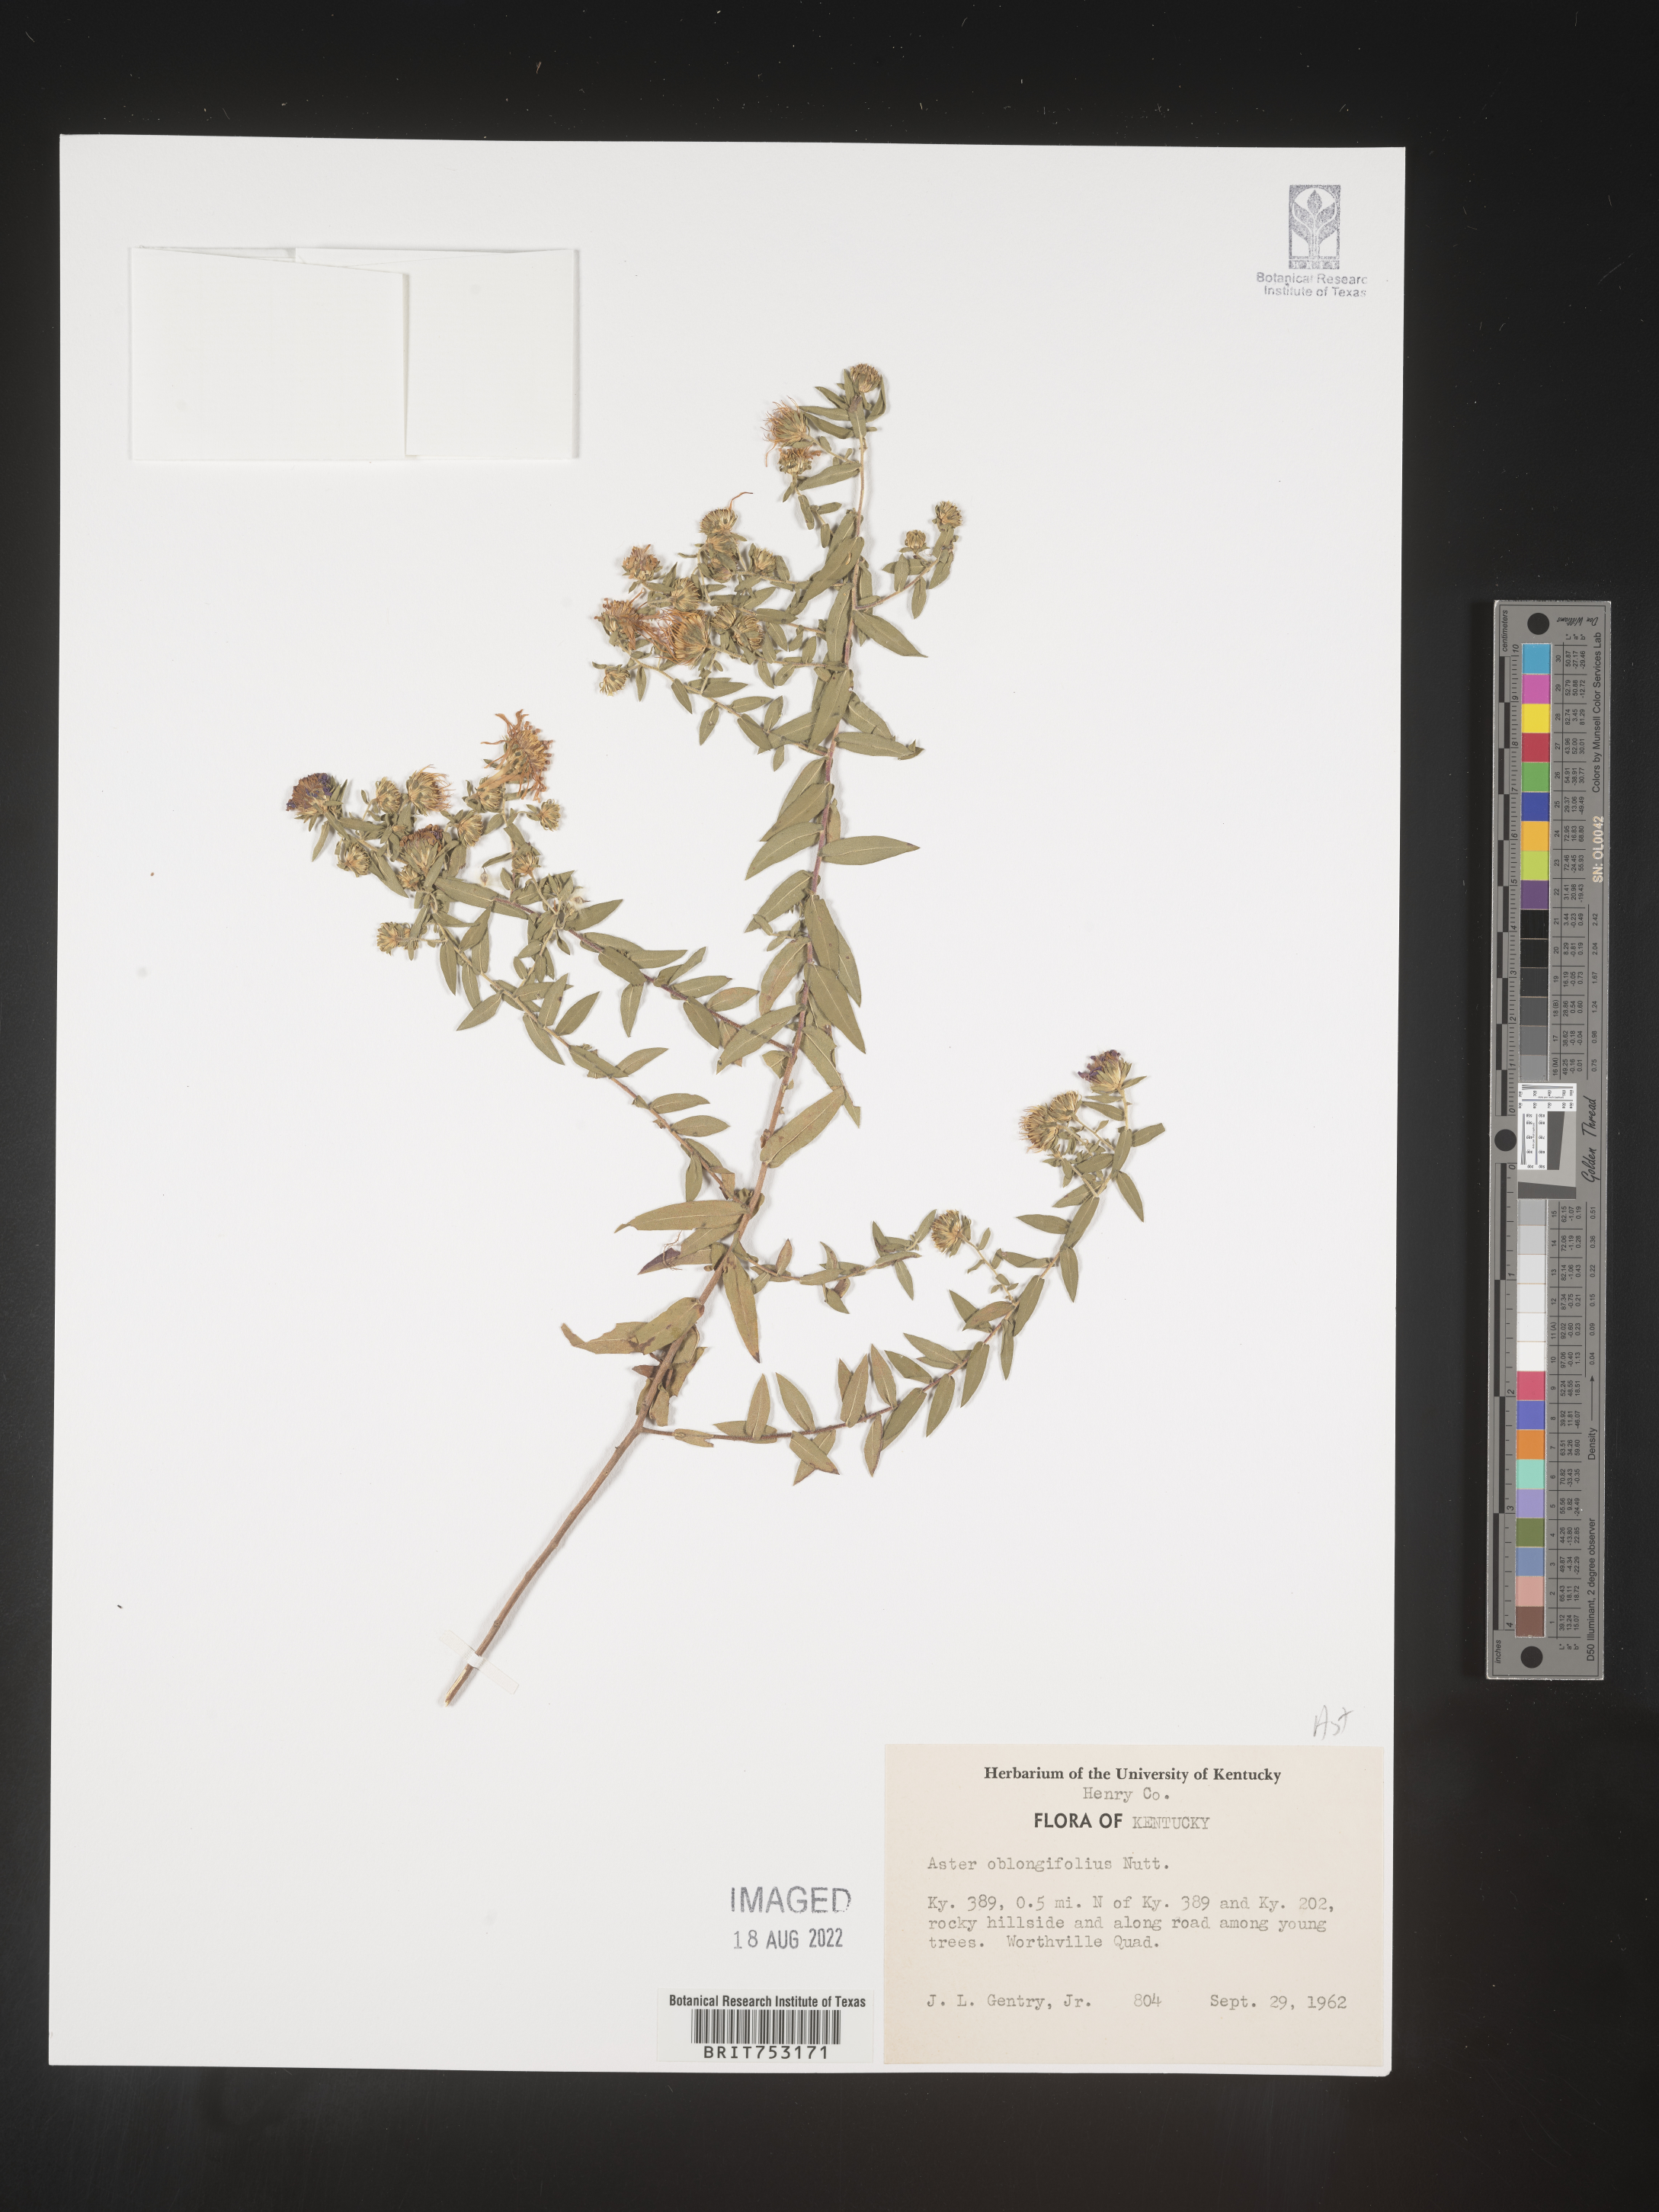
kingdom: Plantae
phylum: Tracheophyta
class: Magnoliopsida
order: Asterales
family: Asteraceae
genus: Symphyotrichum
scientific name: Symphyotrichum oblongifolium
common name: Aromatic aster
